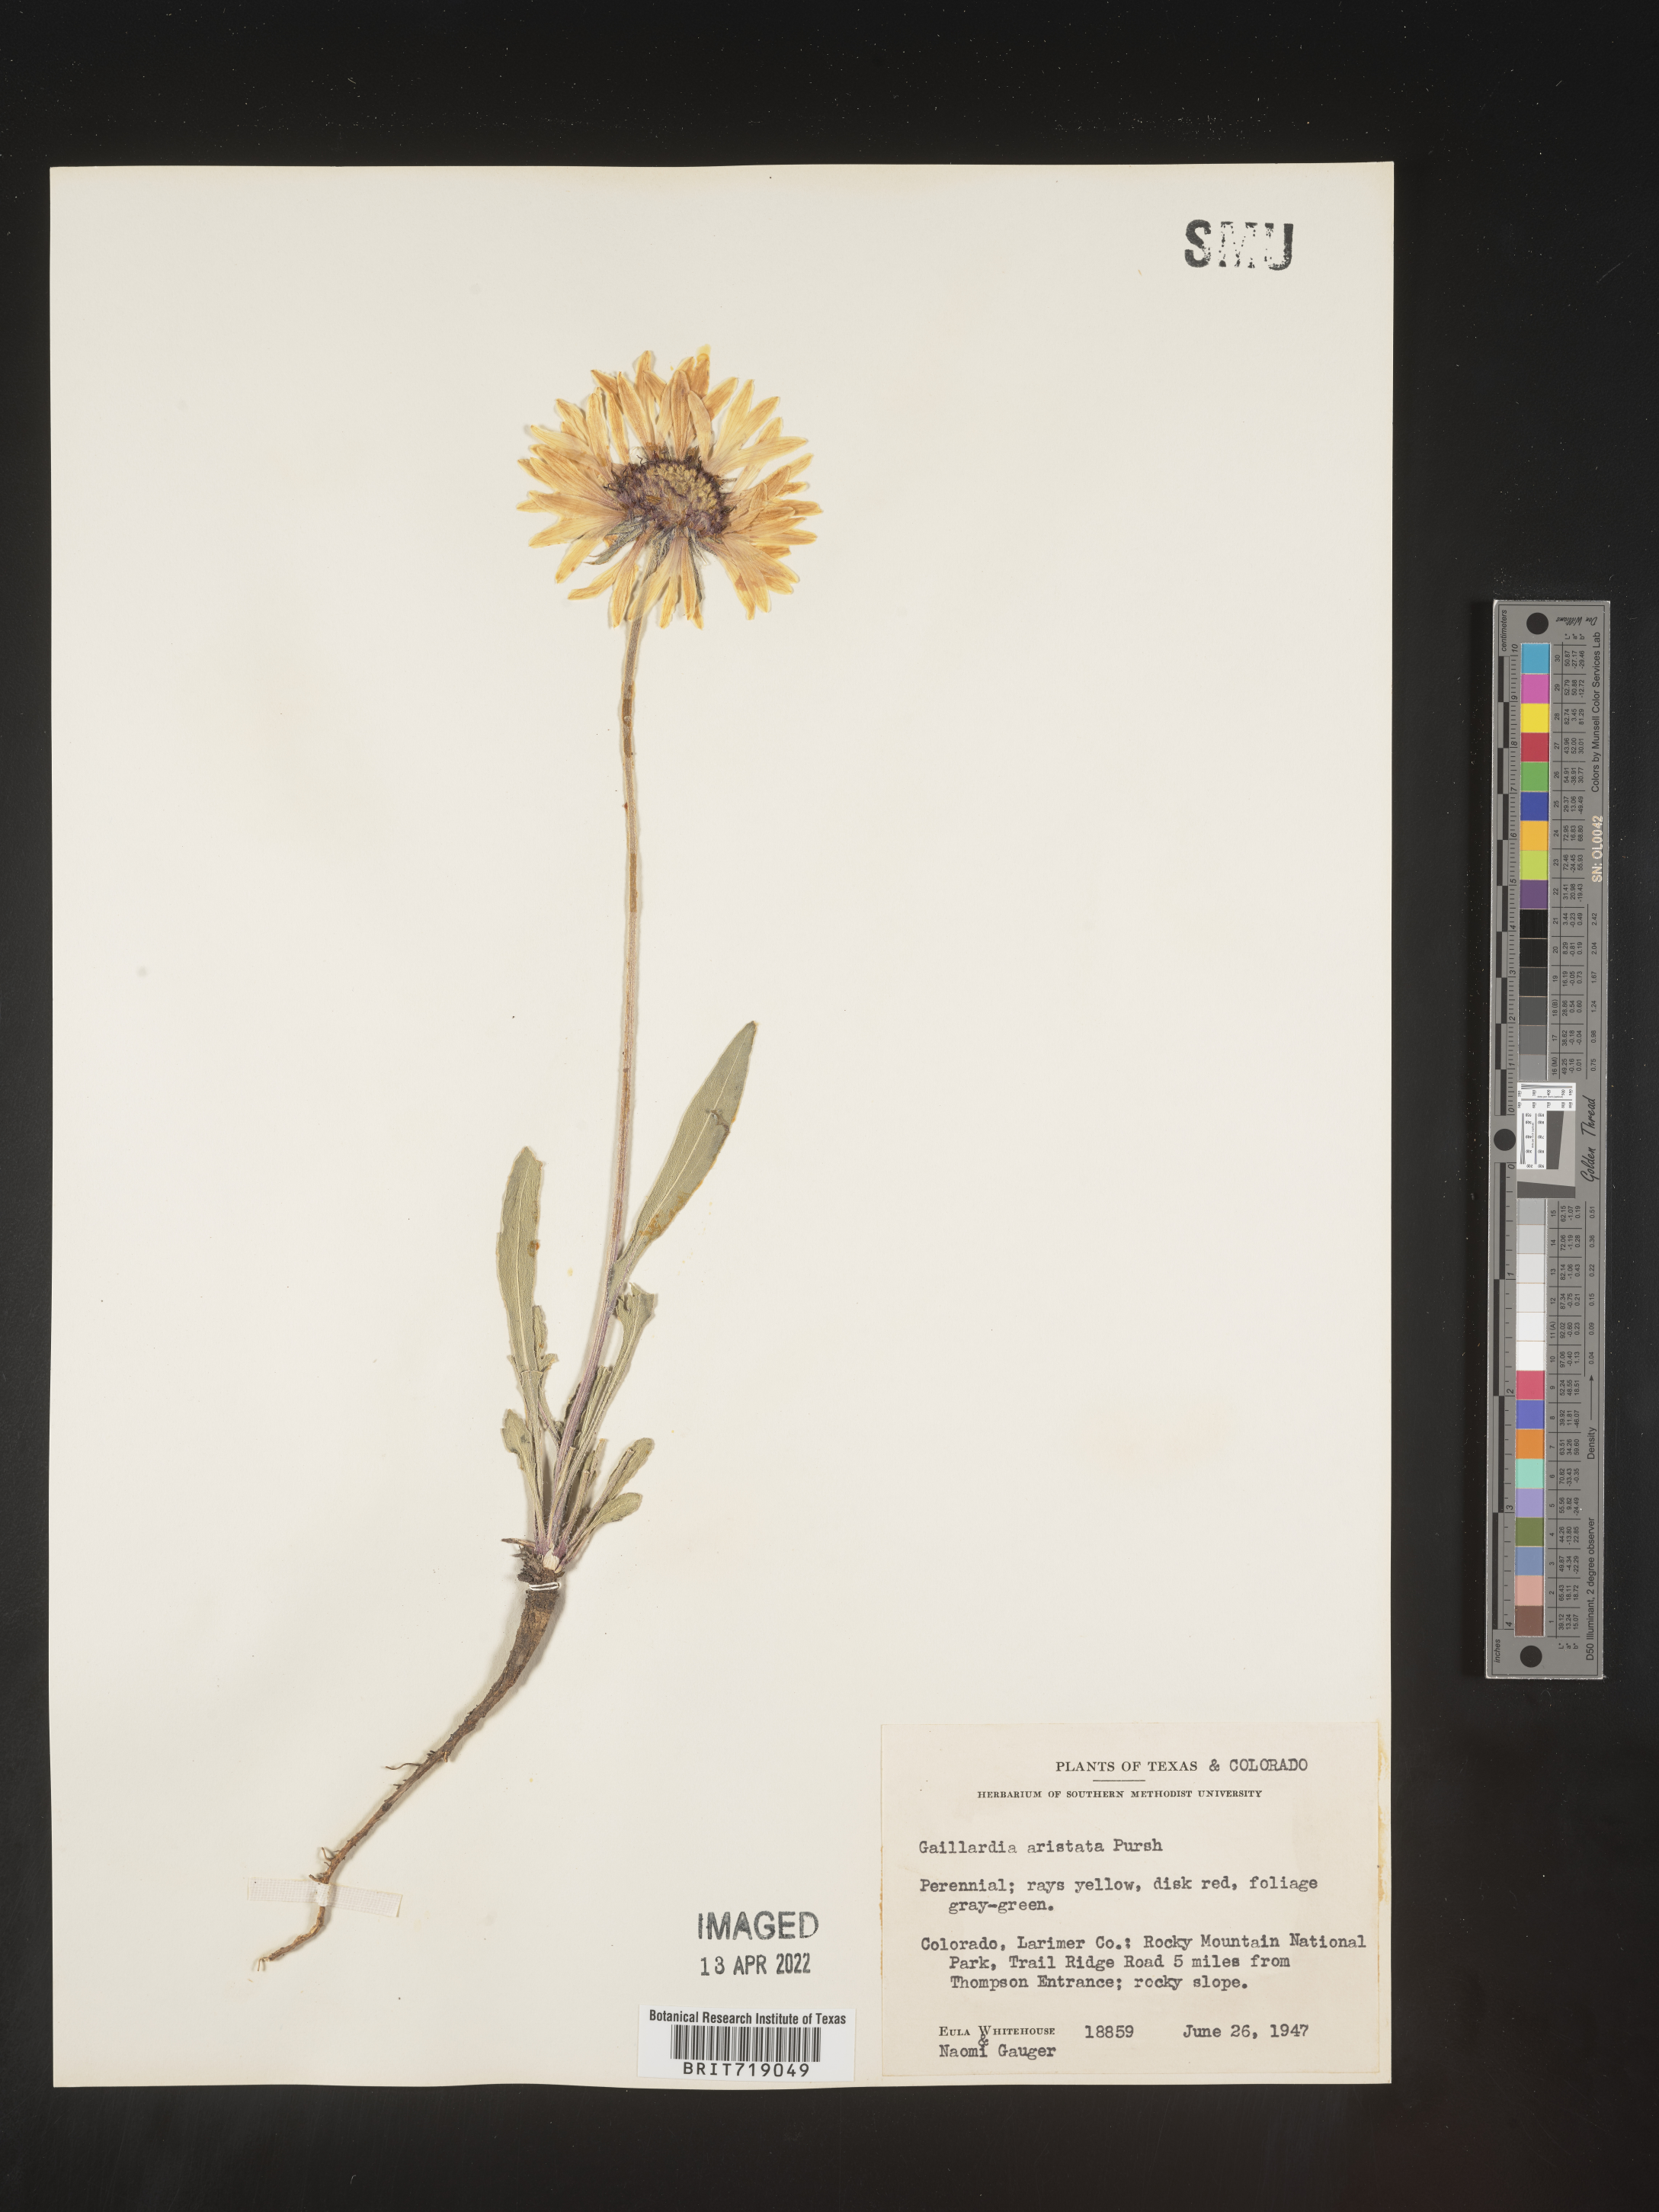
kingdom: Plantae
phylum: Tracheophyta
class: Magnoliopsida
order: Asterales
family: Asteraceae
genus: Gaillardia
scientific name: Gaillardia aristata
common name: Blanket-flower
